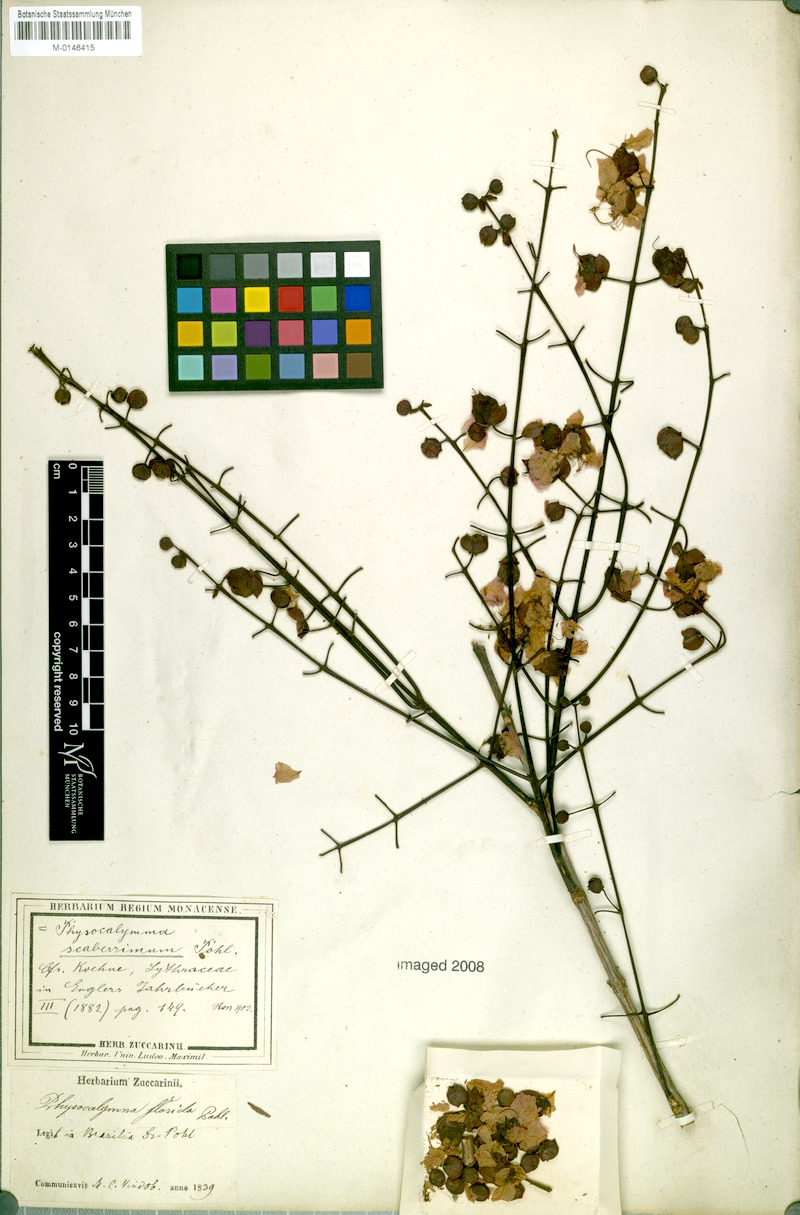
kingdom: Plantae
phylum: Tracheophyta
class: Magnoliopsida
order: Myrtales
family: Lythraceae
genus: Physocalymma
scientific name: Physocalymma scaberrimum
